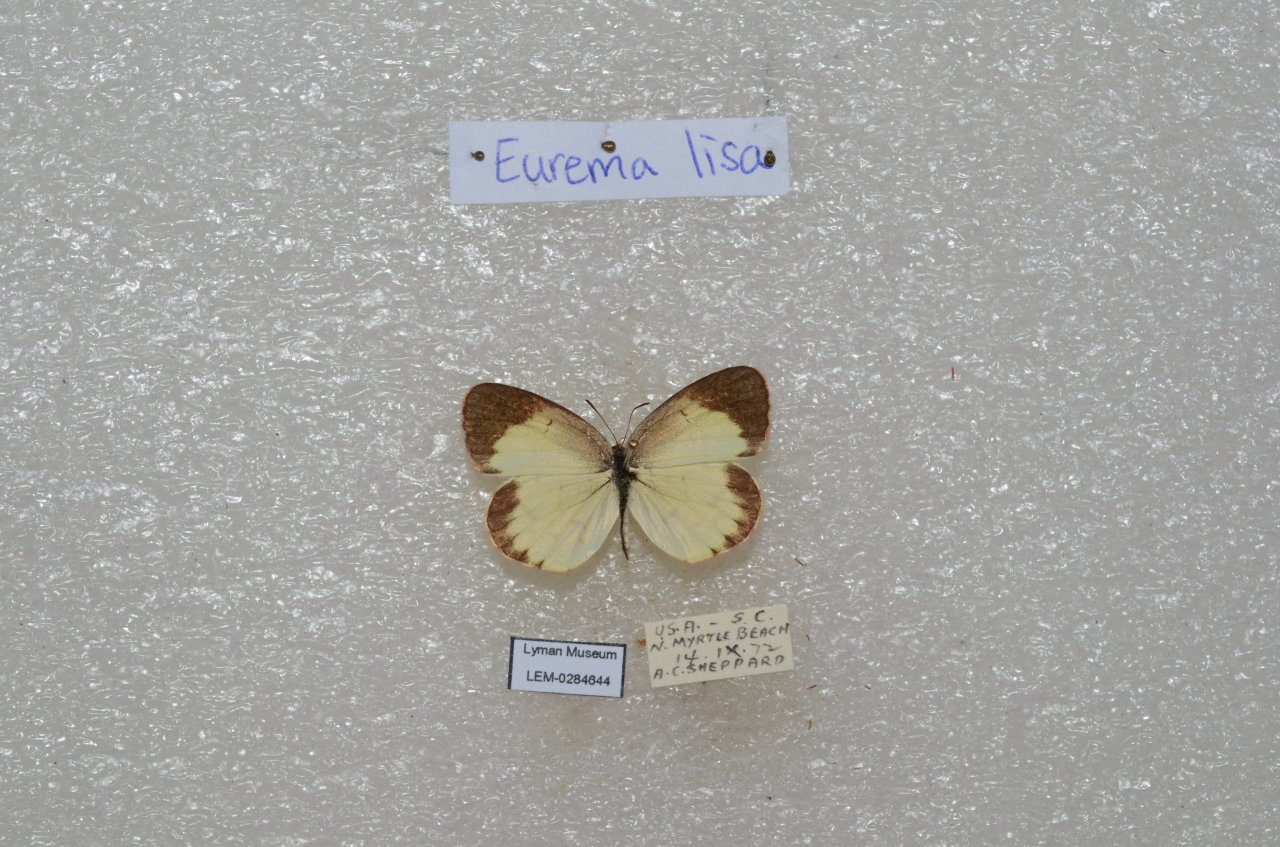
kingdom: Animalia
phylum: Arthropoda
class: Insecta
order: Lepidoptera
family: Pieridae
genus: Pyrisitia
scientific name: Pyrisitia lisa
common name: Little Yellow
